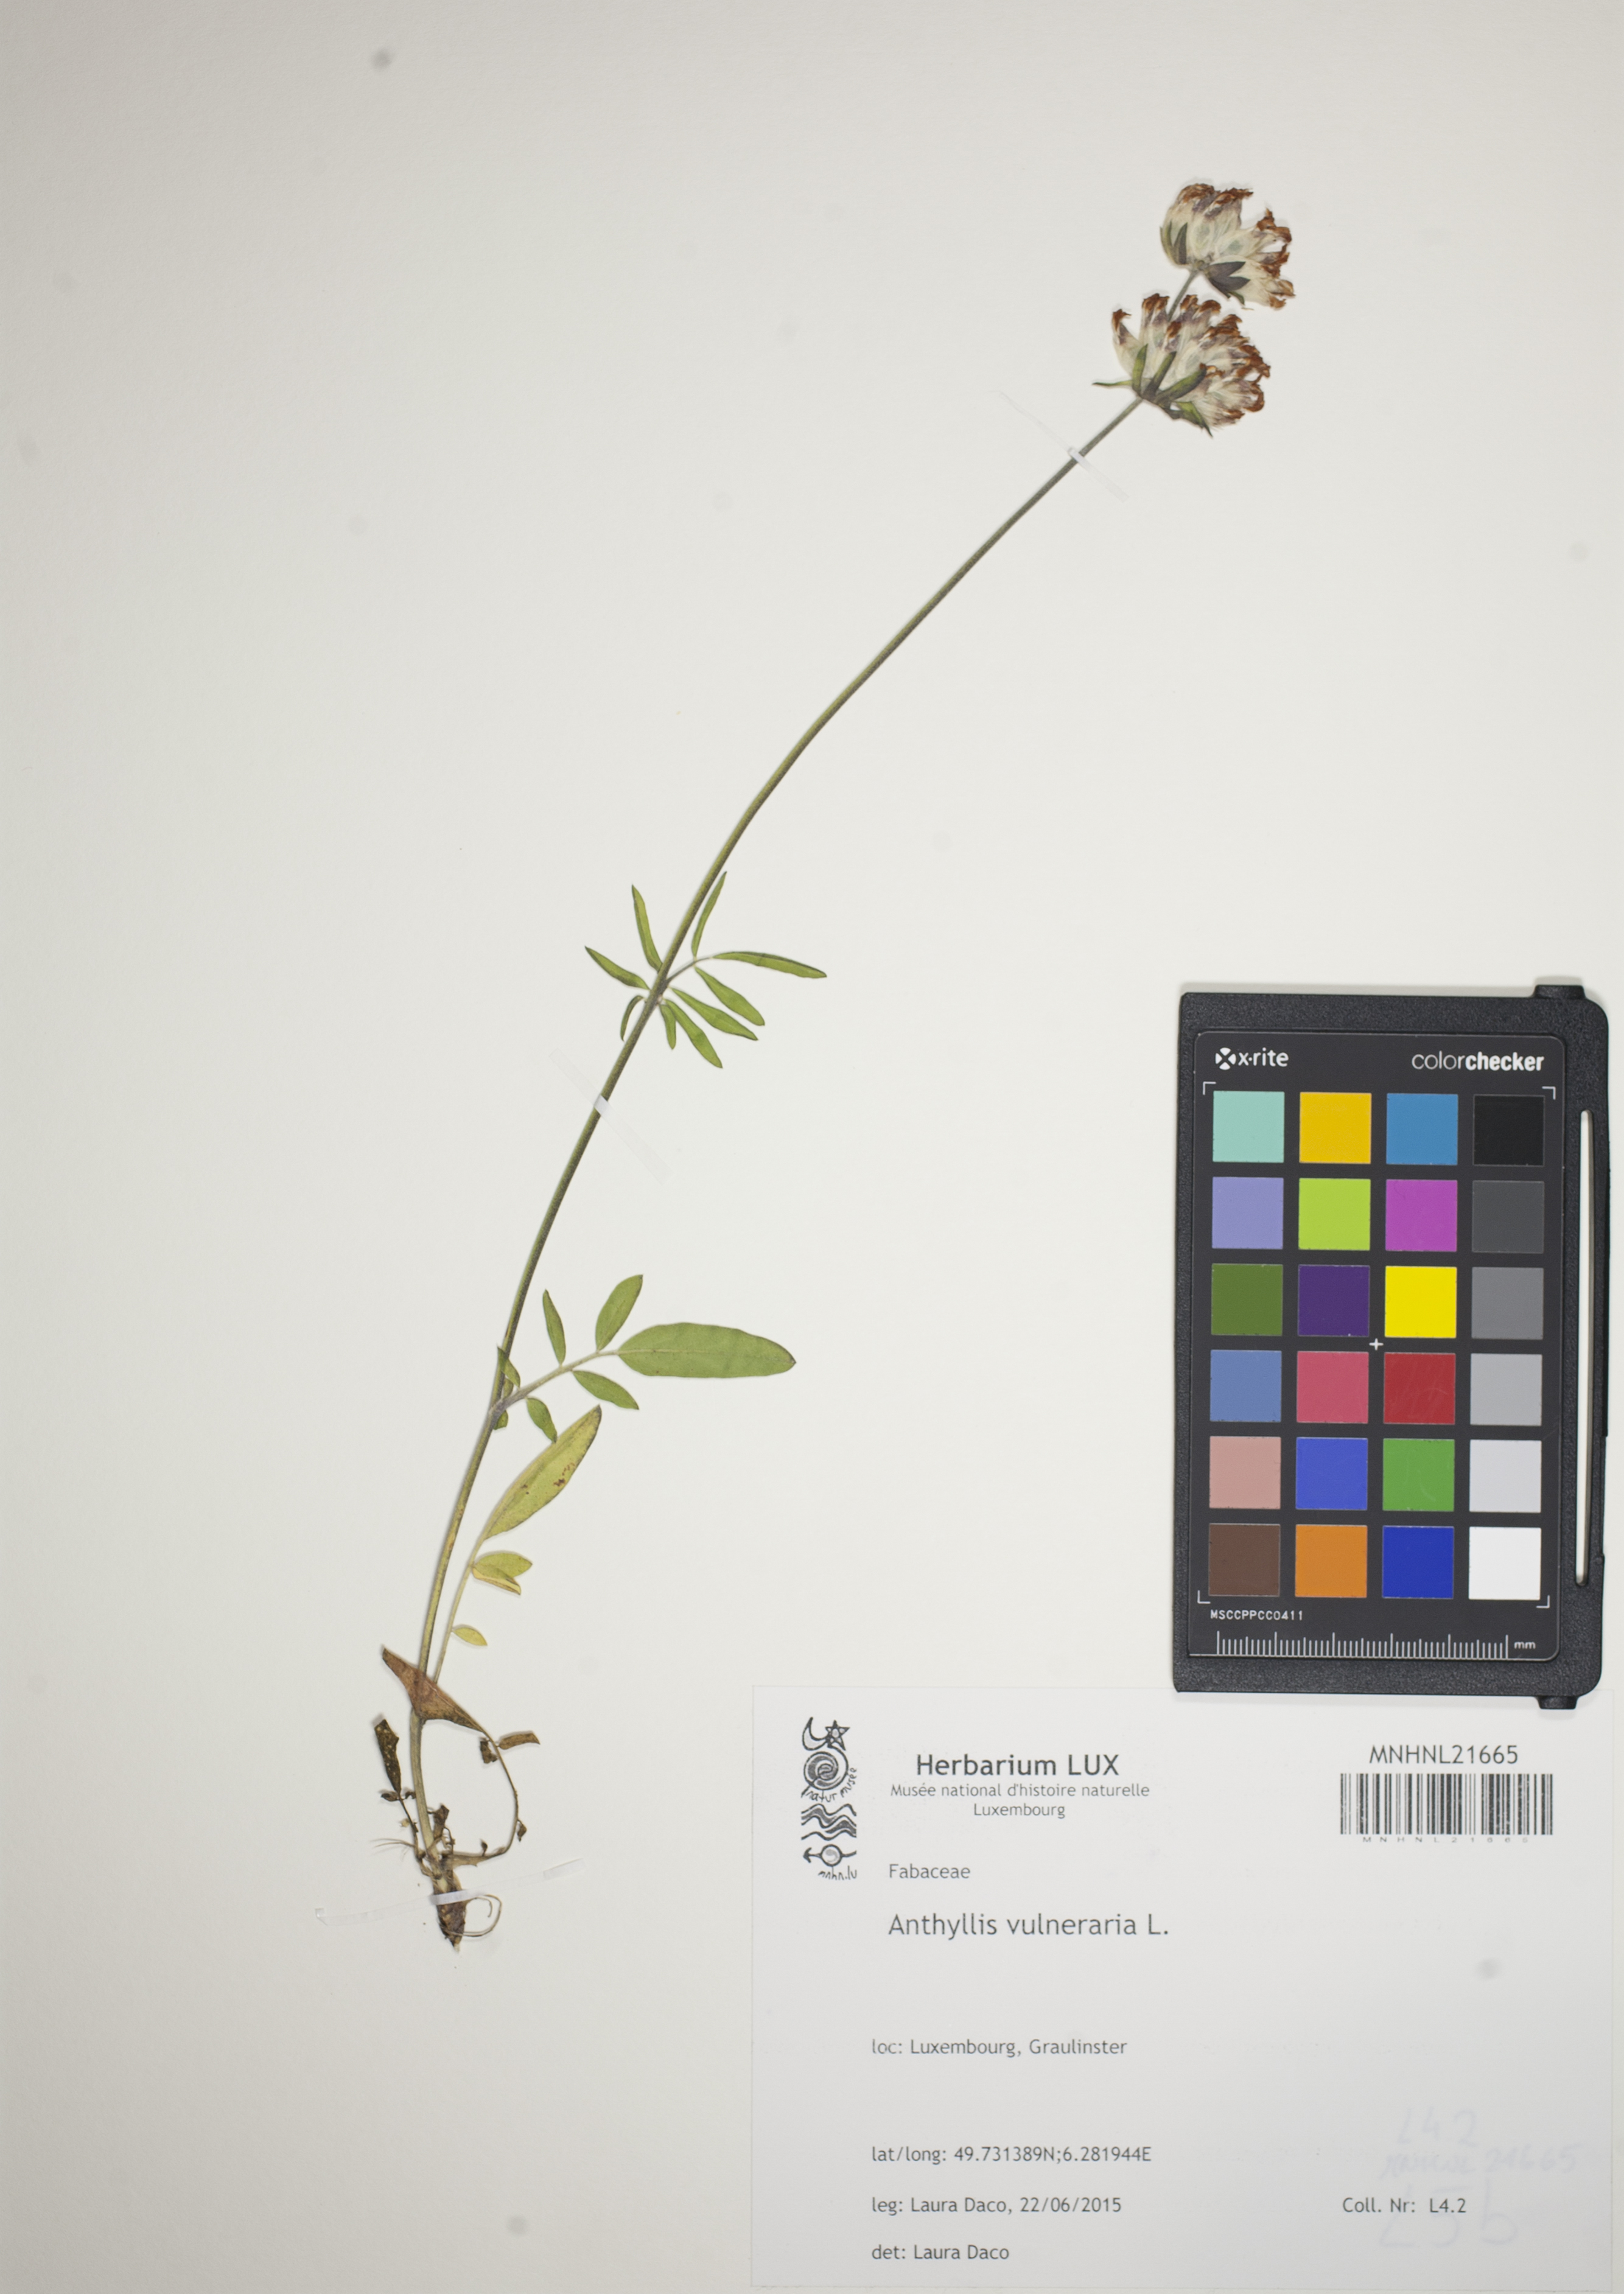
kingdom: Plantae
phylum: Tracheophyta
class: Magnoliopsida
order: Fabales
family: Fabaceae
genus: Anthyllis
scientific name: Anthyllis vulneraria
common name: Kidney vetch
